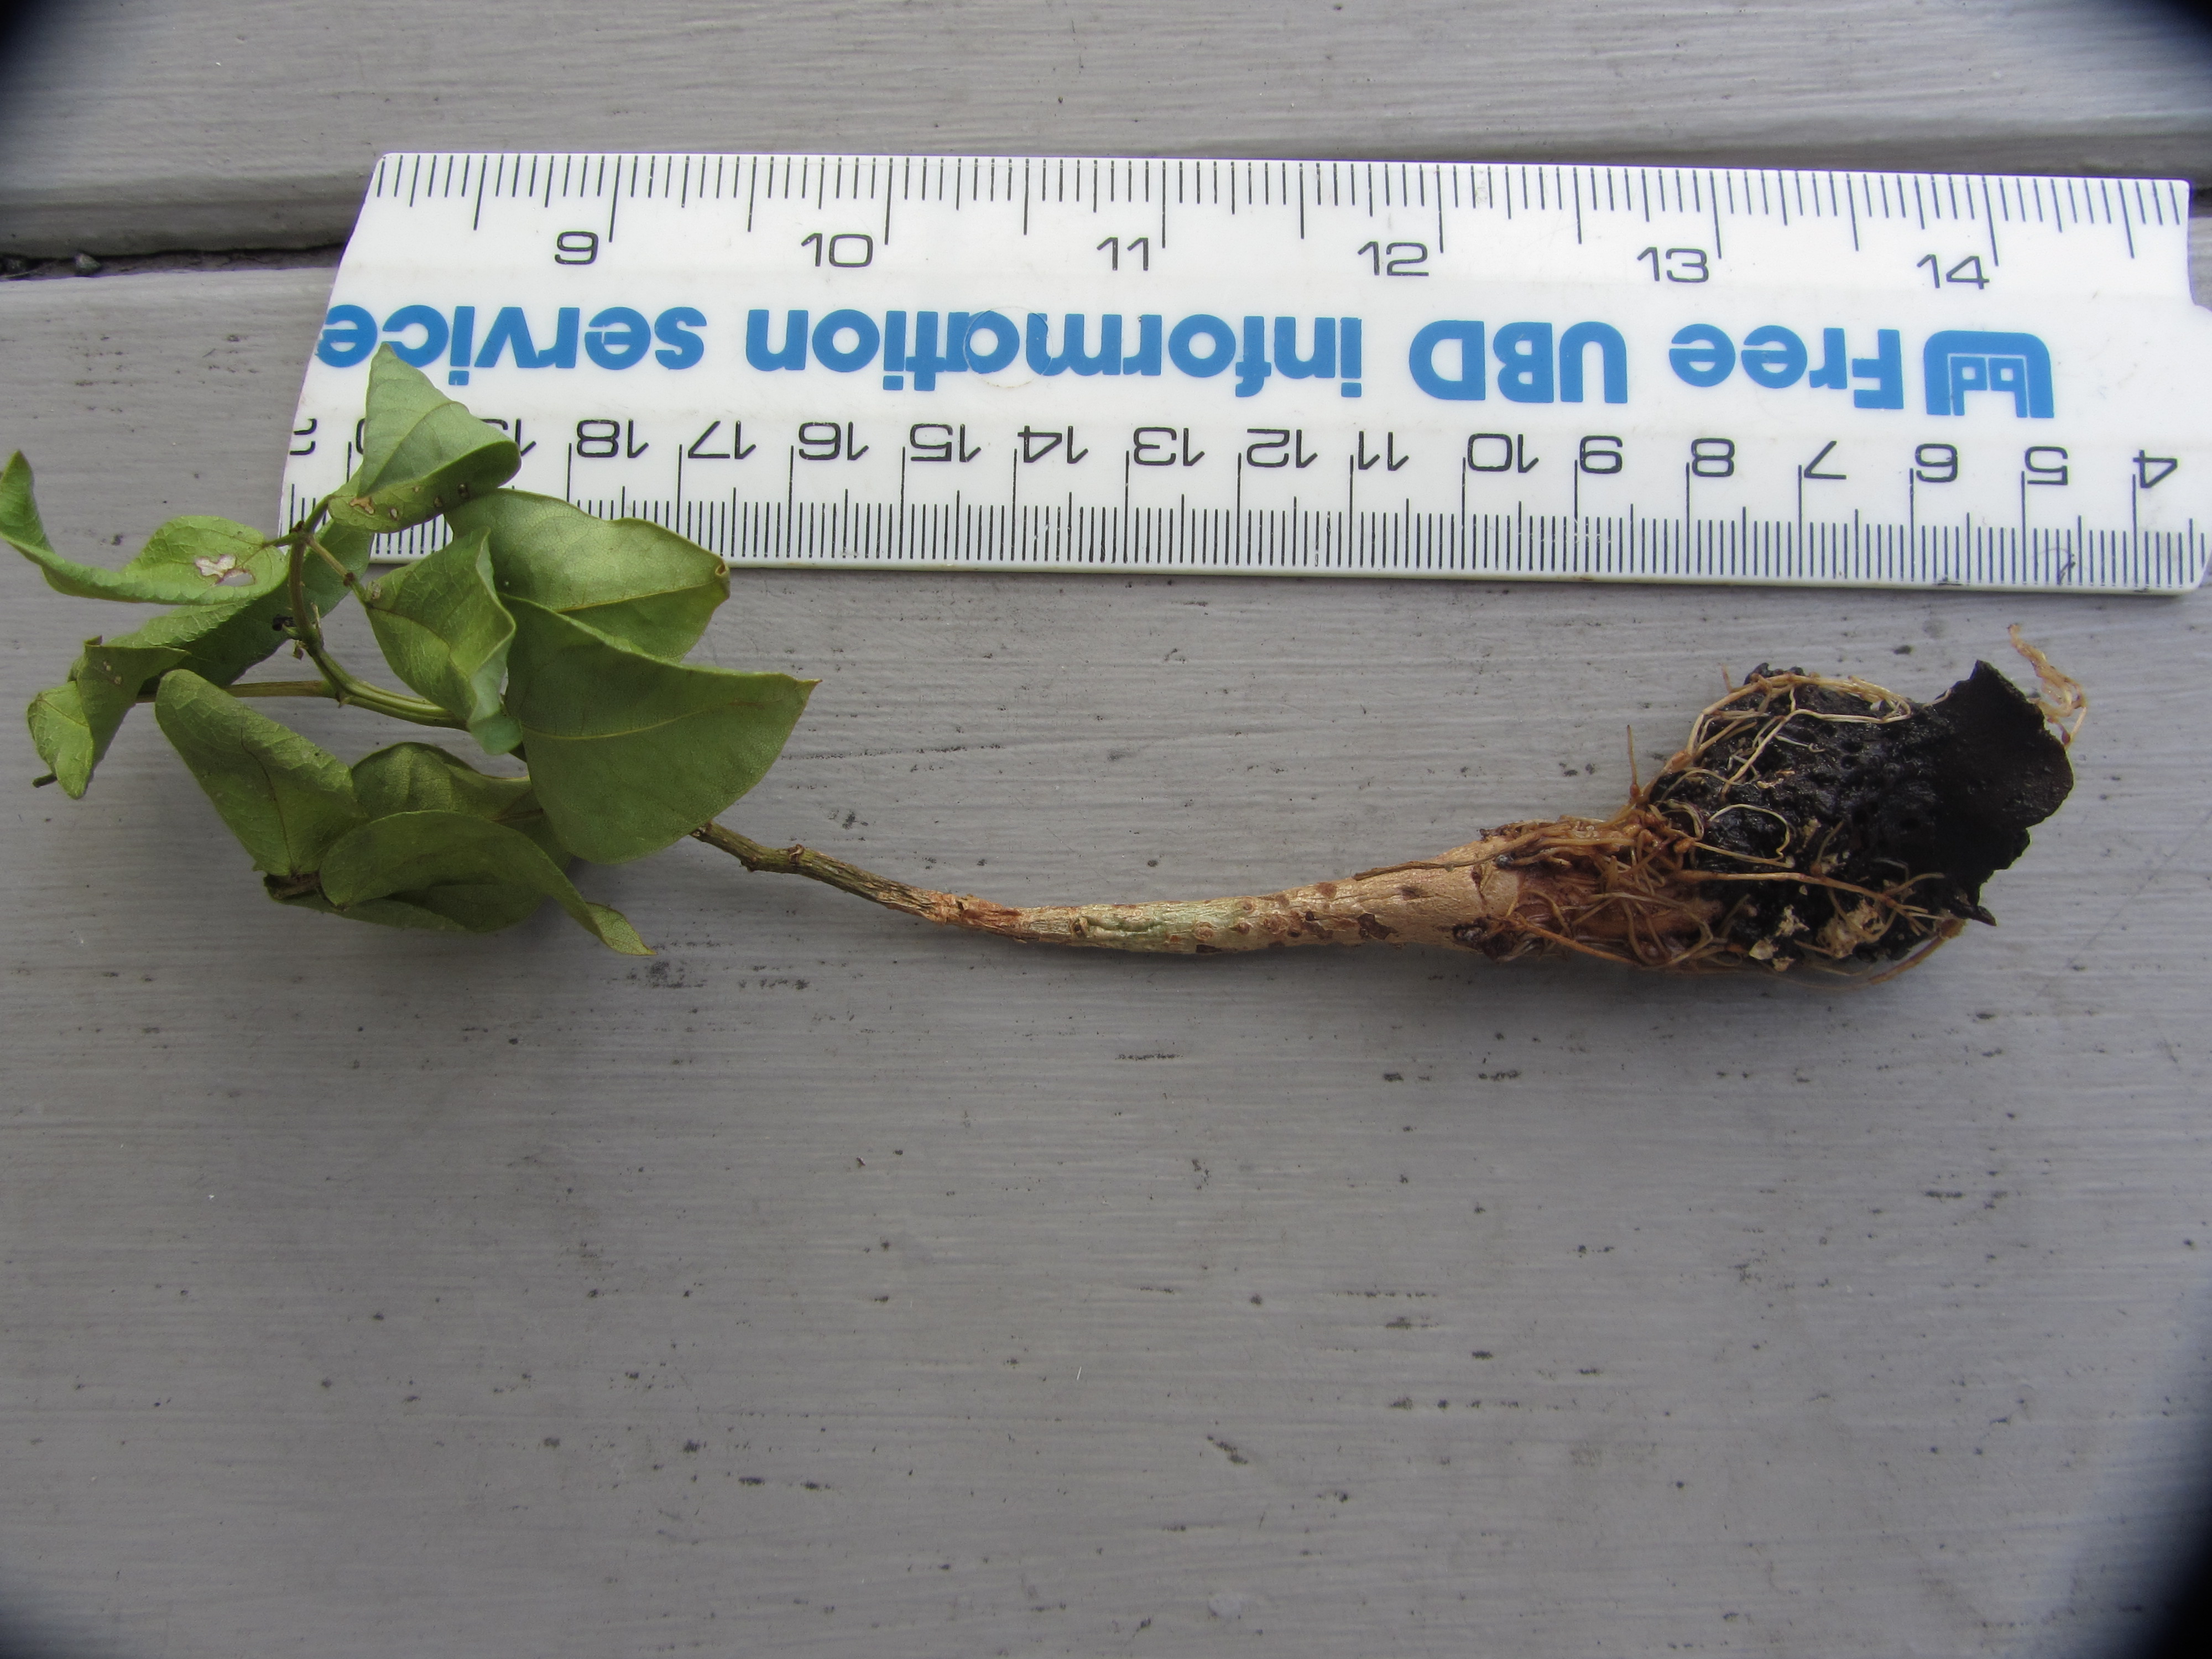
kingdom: Plantae
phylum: Tracheophyta
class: Magnoliopsida
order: Fabales
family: Fabaceae
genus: Erythrina
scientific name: Erythrina sykesii
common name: Coraltree
